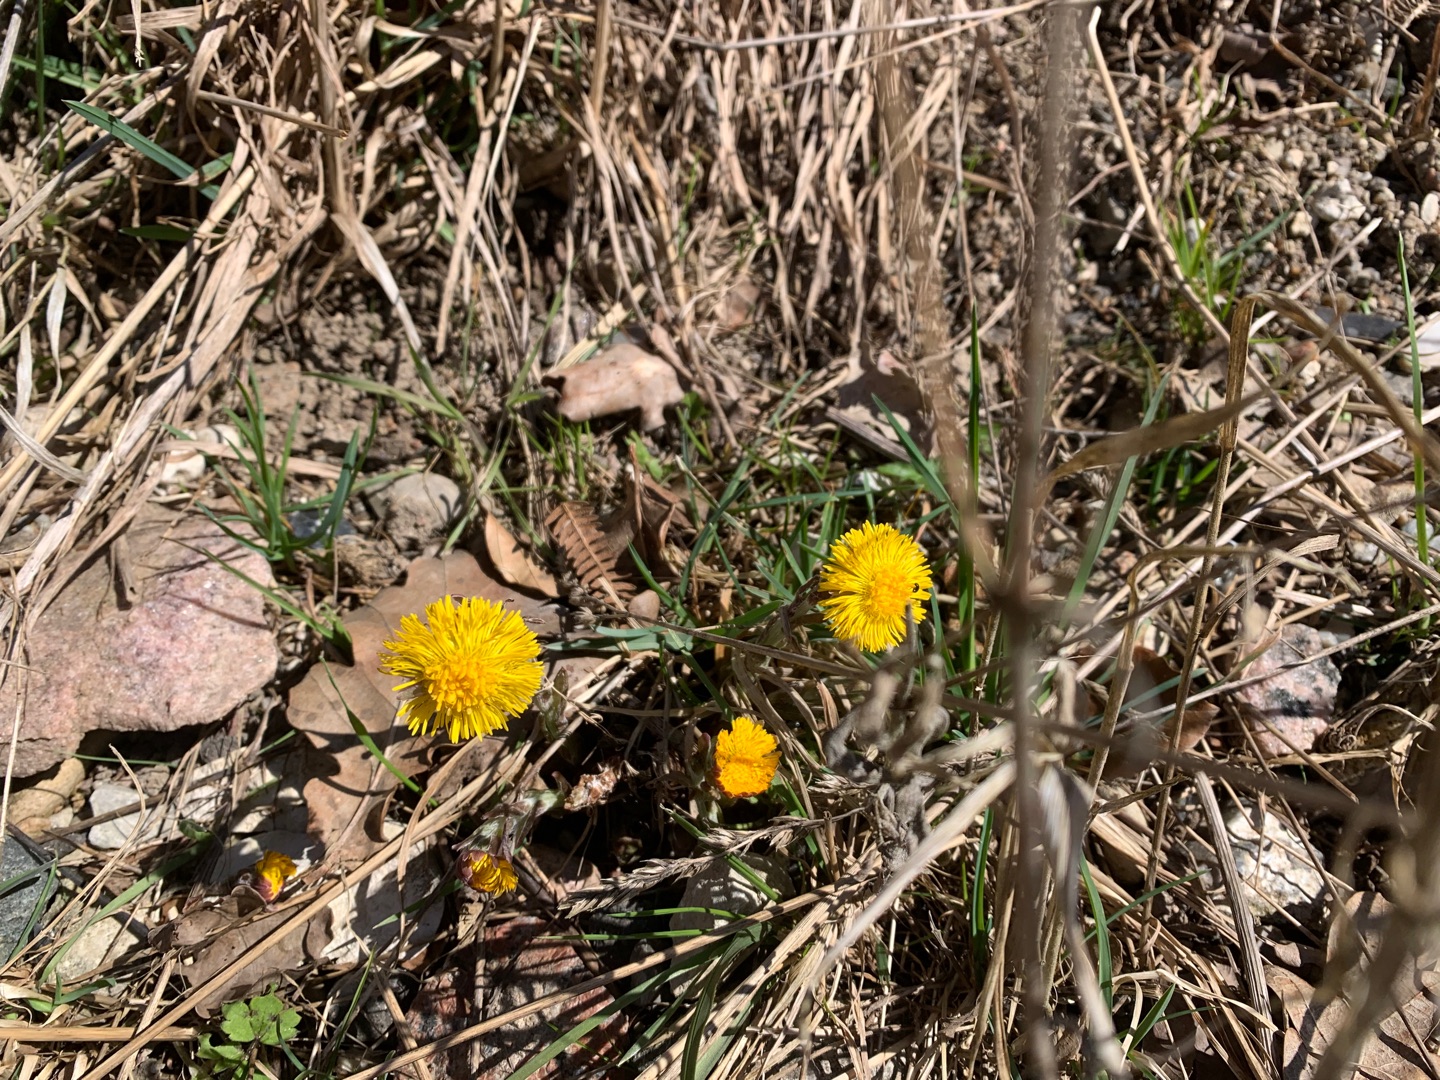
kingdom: Plantae
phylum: Tracheophyta
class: Magnoliopsida
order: Asterales
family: Asteraceae
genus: Tussilago
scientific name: Tussilago farfara
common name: Følfod
